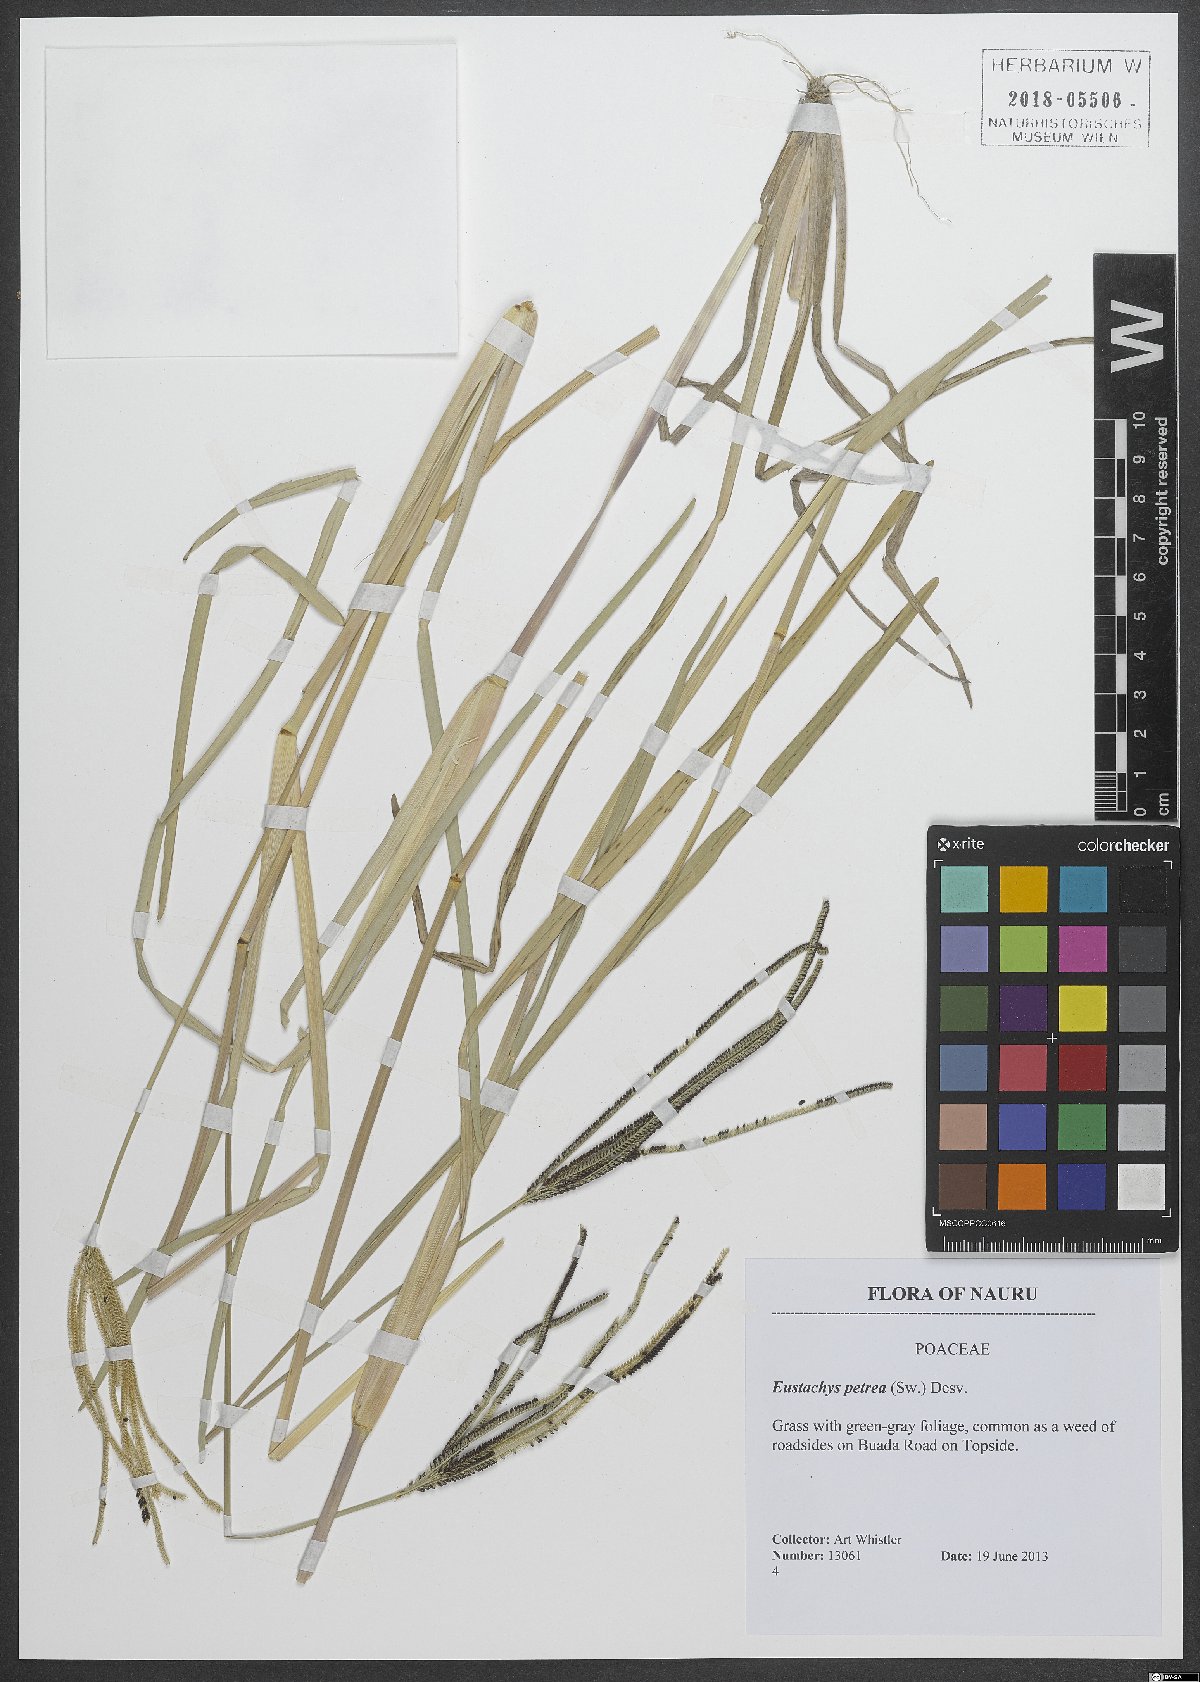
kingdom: Plantae
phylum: Tracheophyta
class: Liliopsida
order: Poales
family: Poaceae
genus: Eustachys
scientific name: Eustachys petraea
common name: Pinewoods fingergrass
